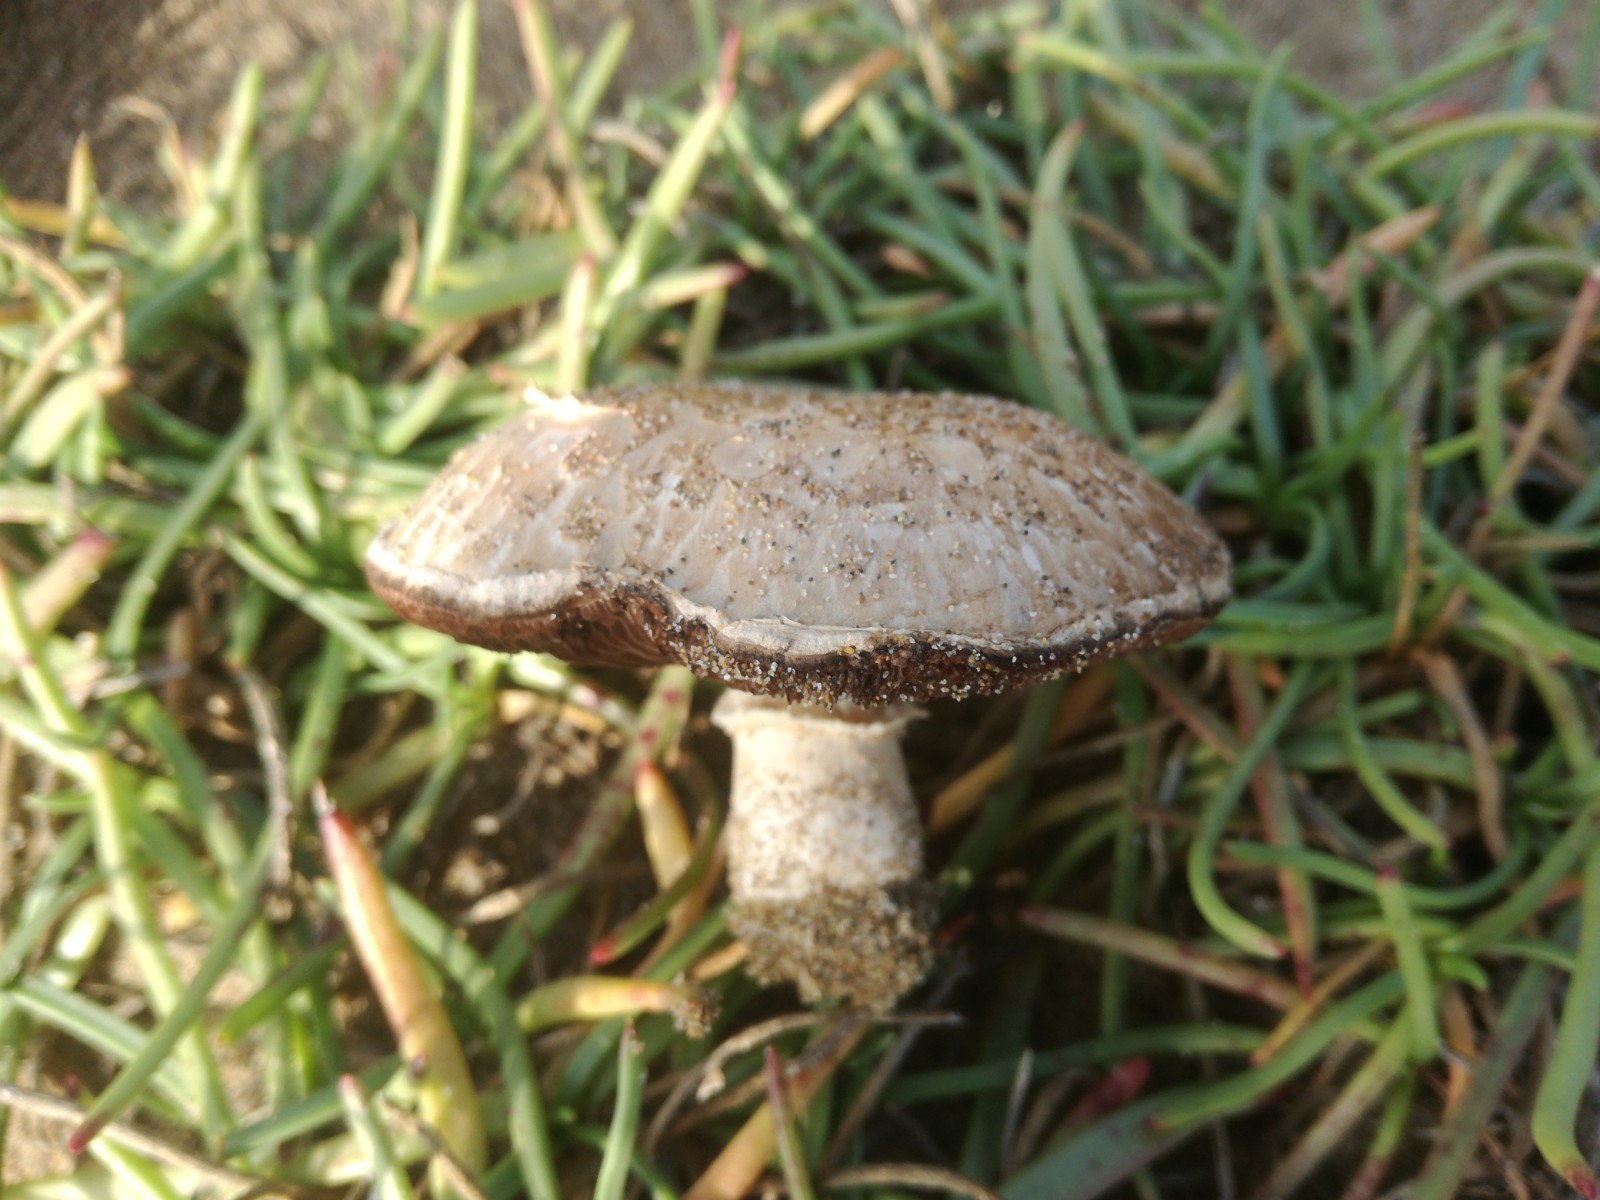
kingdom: Fungi
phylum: Basidiomycota
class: Agaricomycetes
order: Agaricales
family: Agaricaceae
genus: Agaricus
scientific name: Agaricus
